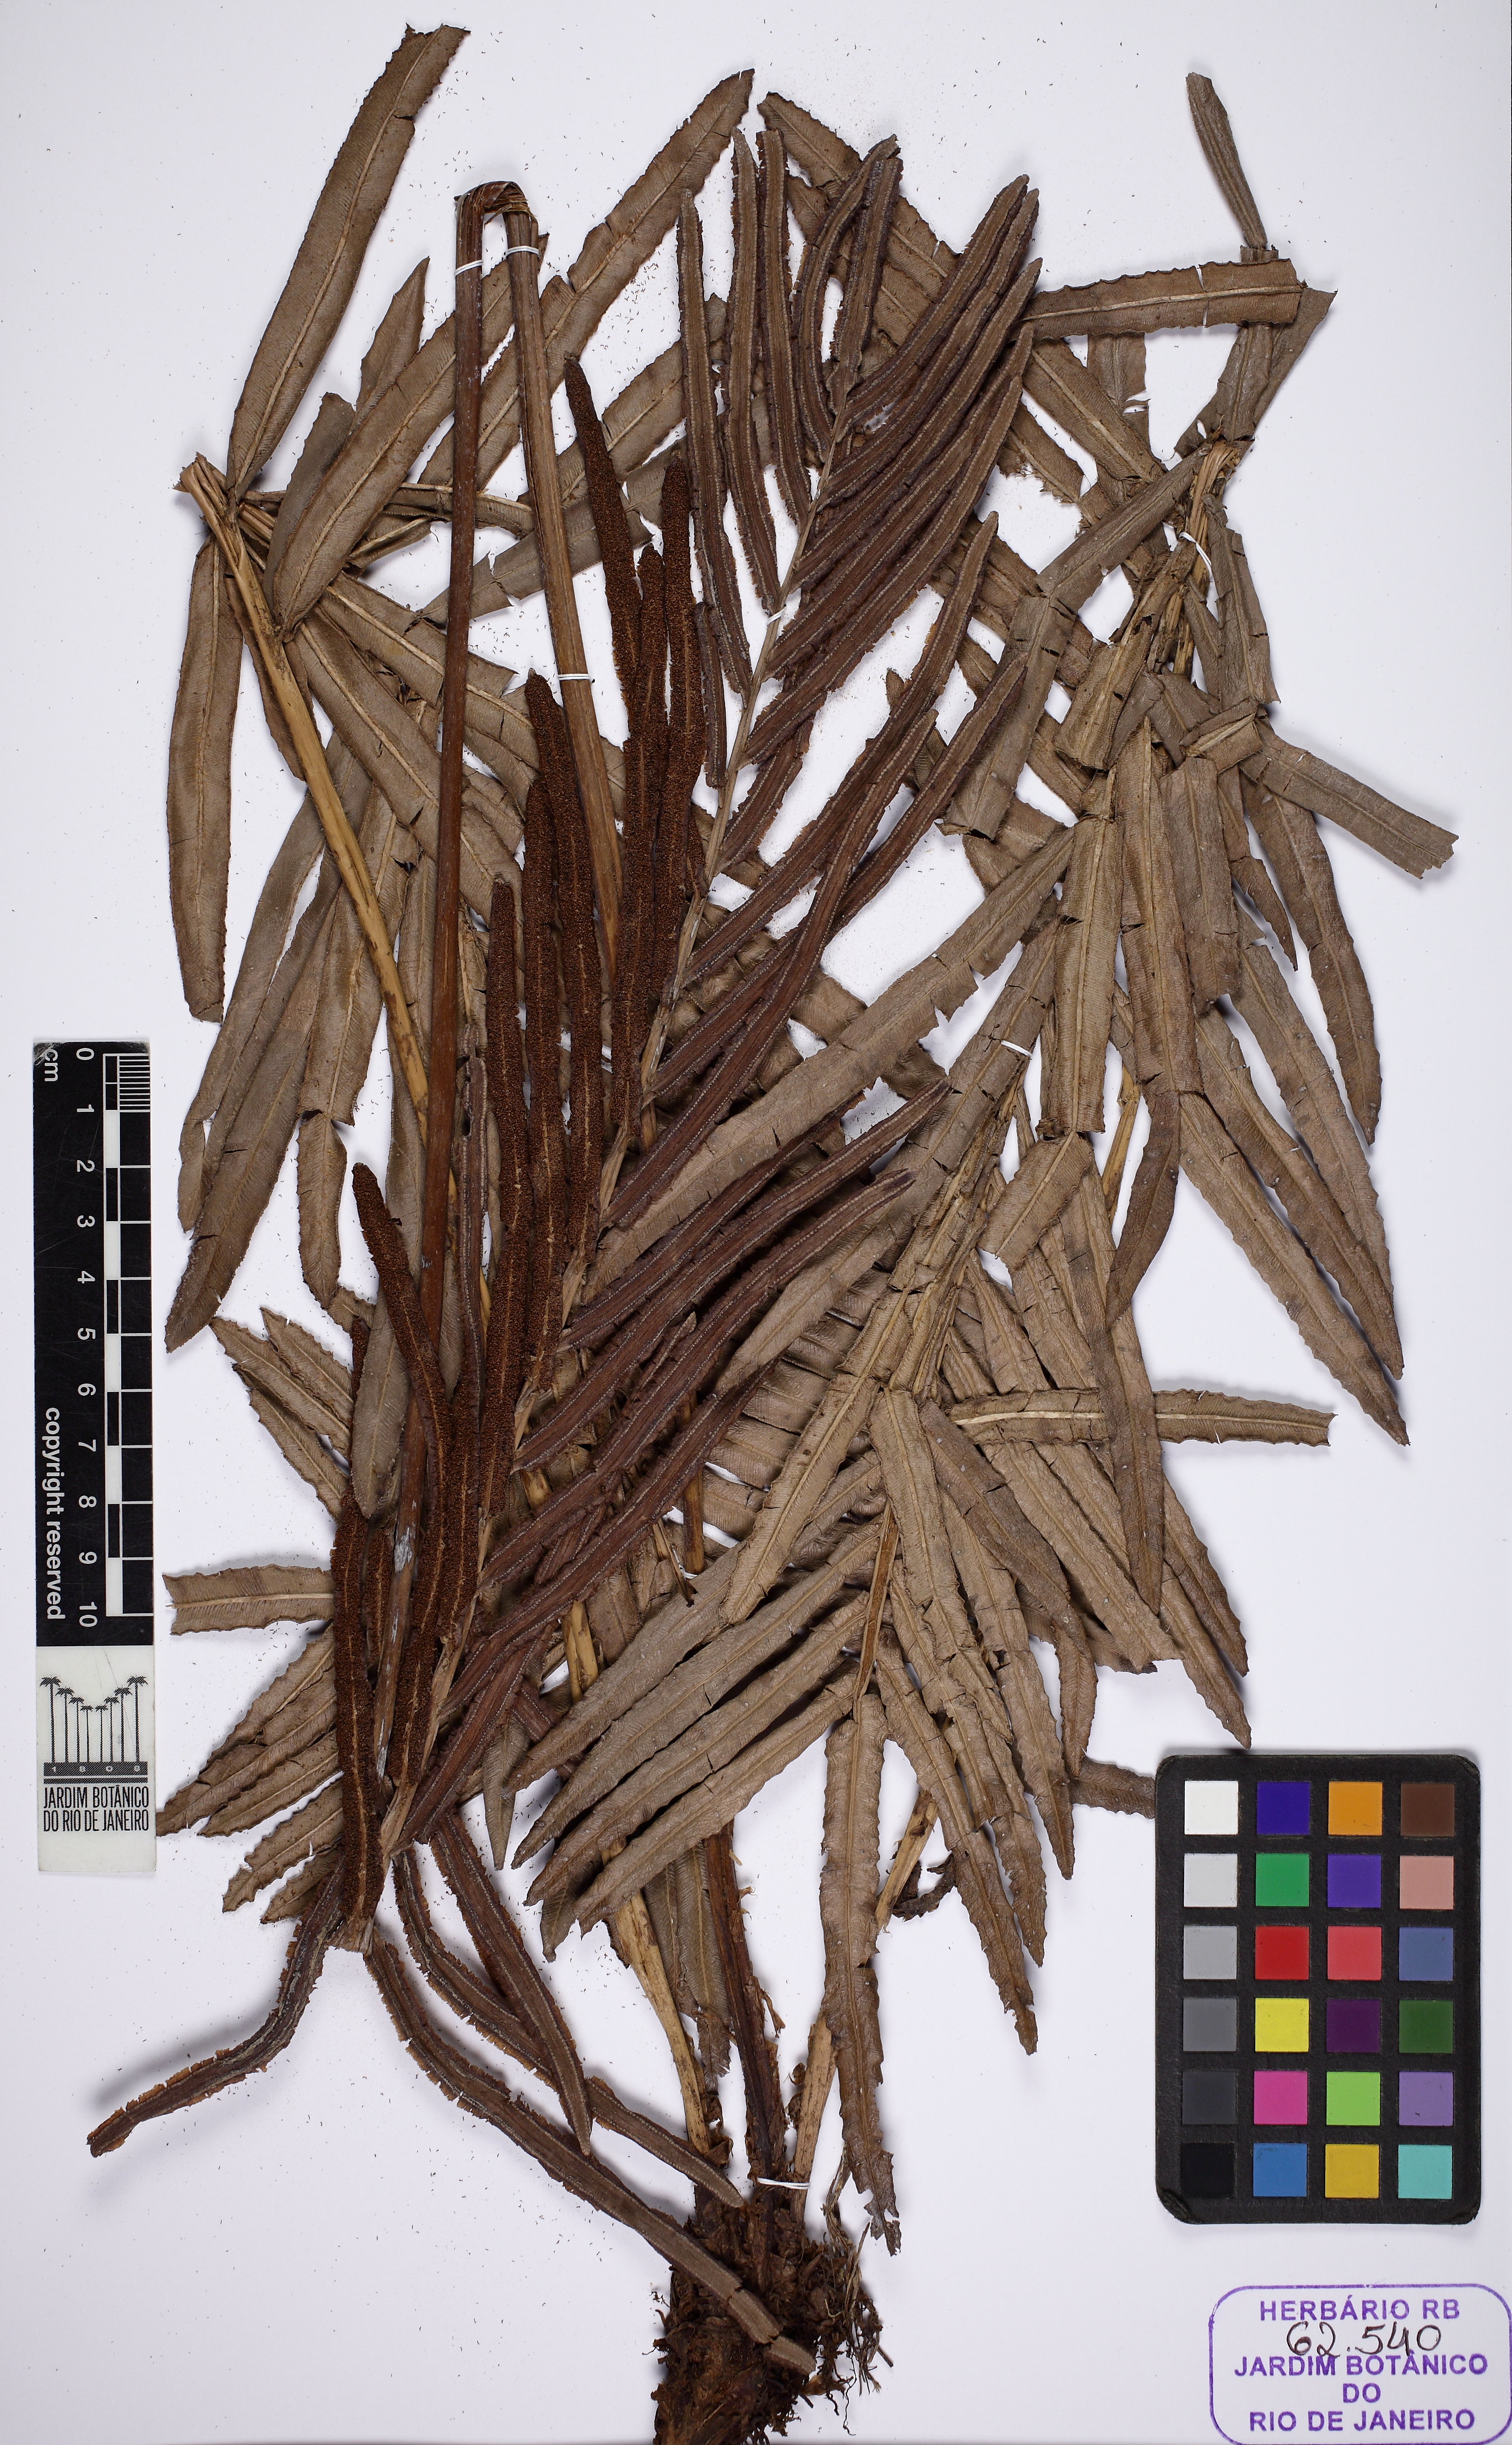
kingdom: Plantae
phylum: Tracheophyta
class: Polypodiopsida
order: Polypodiales
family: Blechnaceae
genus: Parablechnum
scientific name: Parablechnum usterianum
